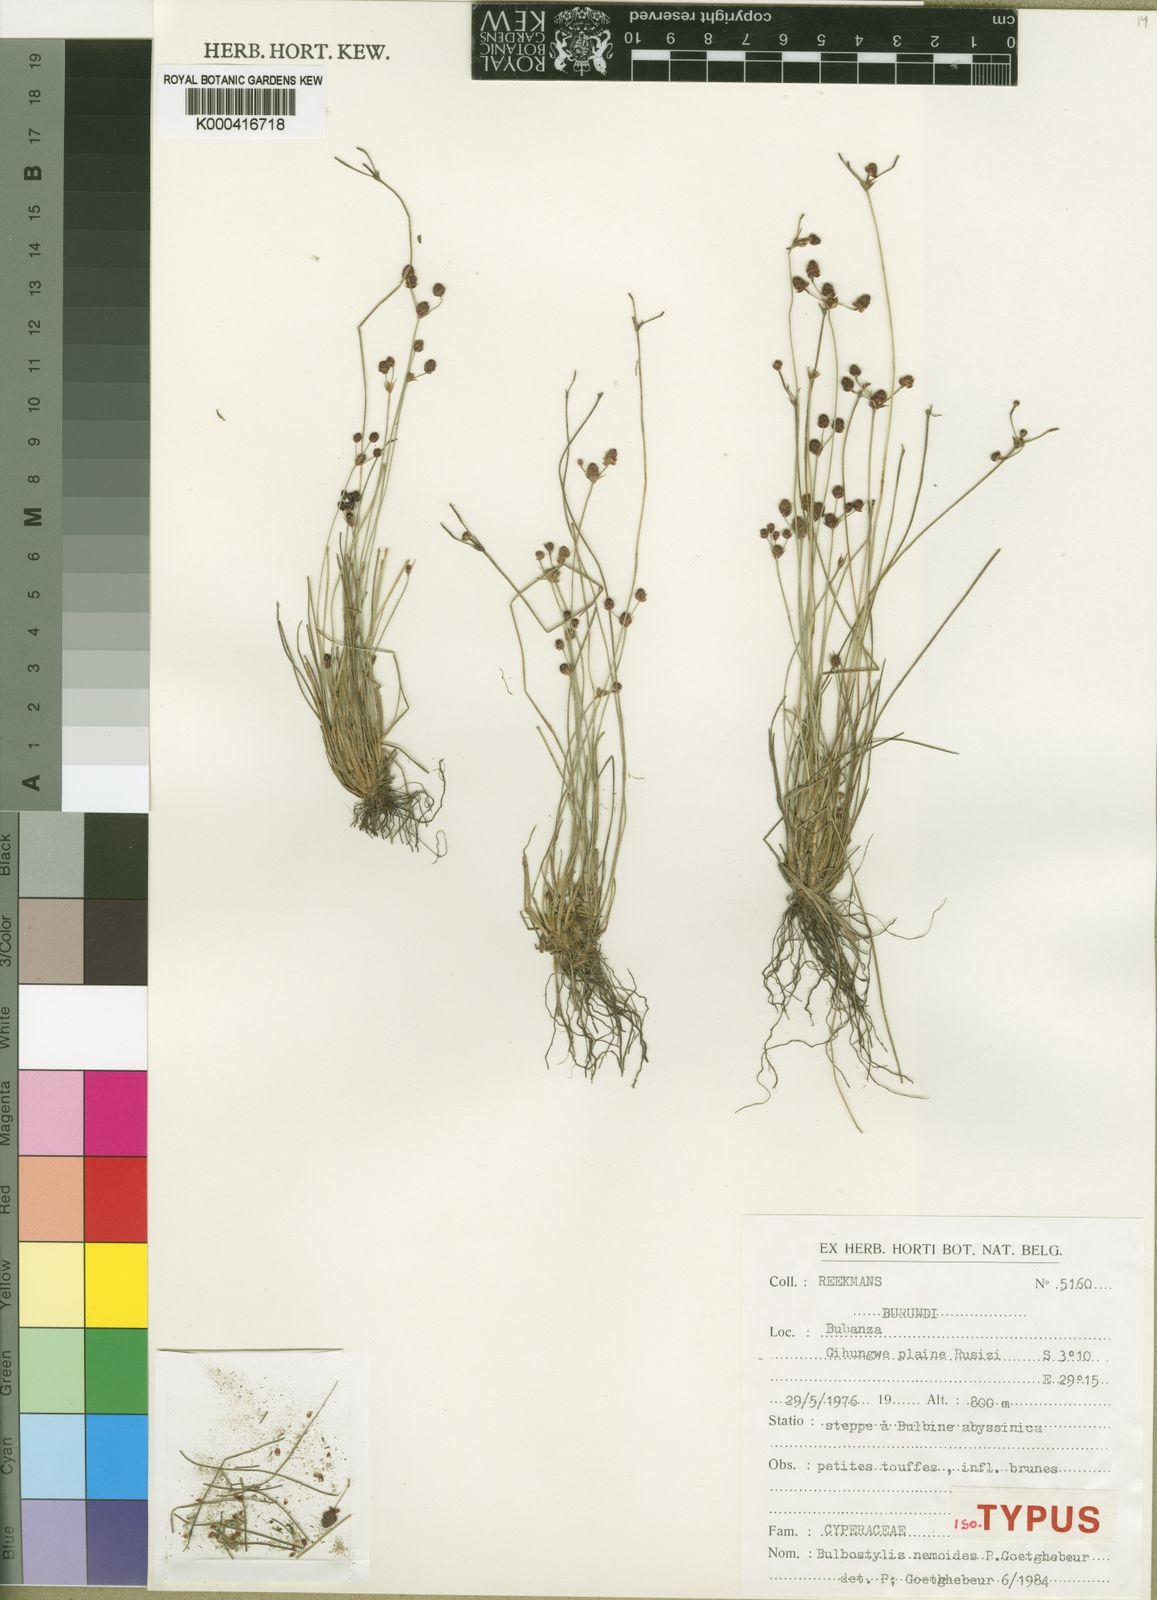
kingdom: Plantae
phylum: Tracheophyta
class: Liliopsida
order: Poales
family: Cyperaceae
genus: Bulbostylis
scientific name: Bulbostylis nemoides
